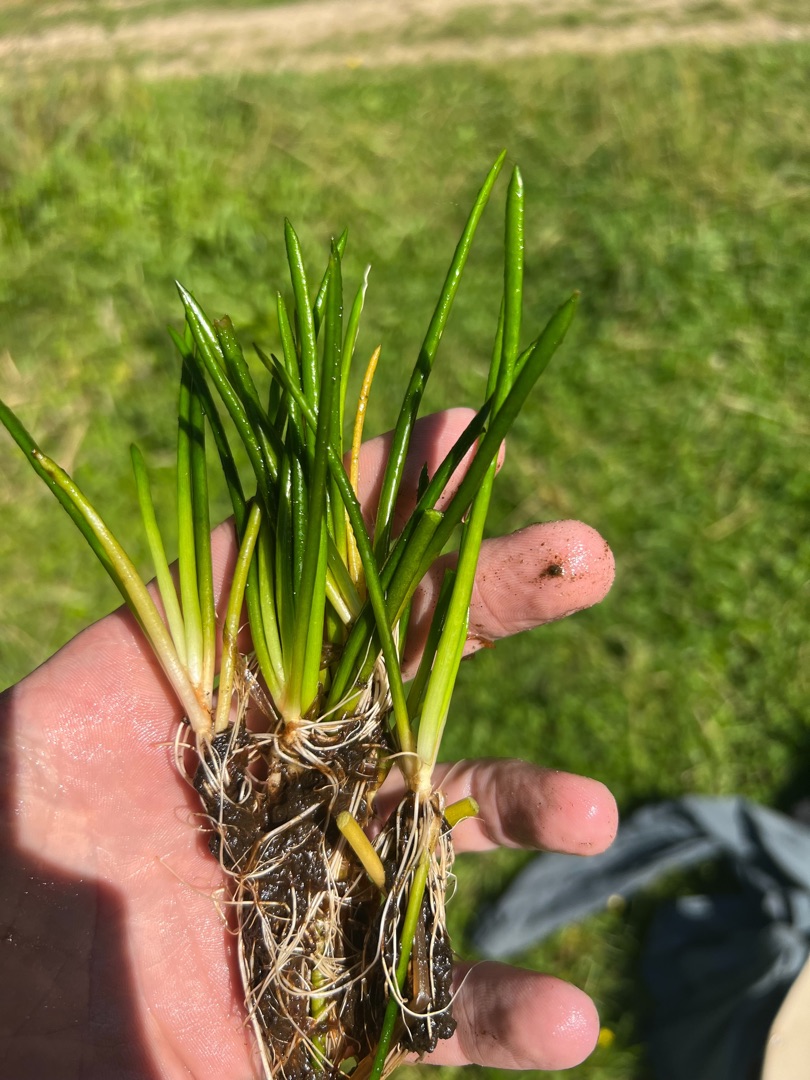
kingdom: Plantae
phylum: Tracheophyta
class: Magnoliopsida
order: Lamiales
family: Plantaginaceae
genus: Littorella
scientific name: Littorella uniflora
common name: Strandbo
